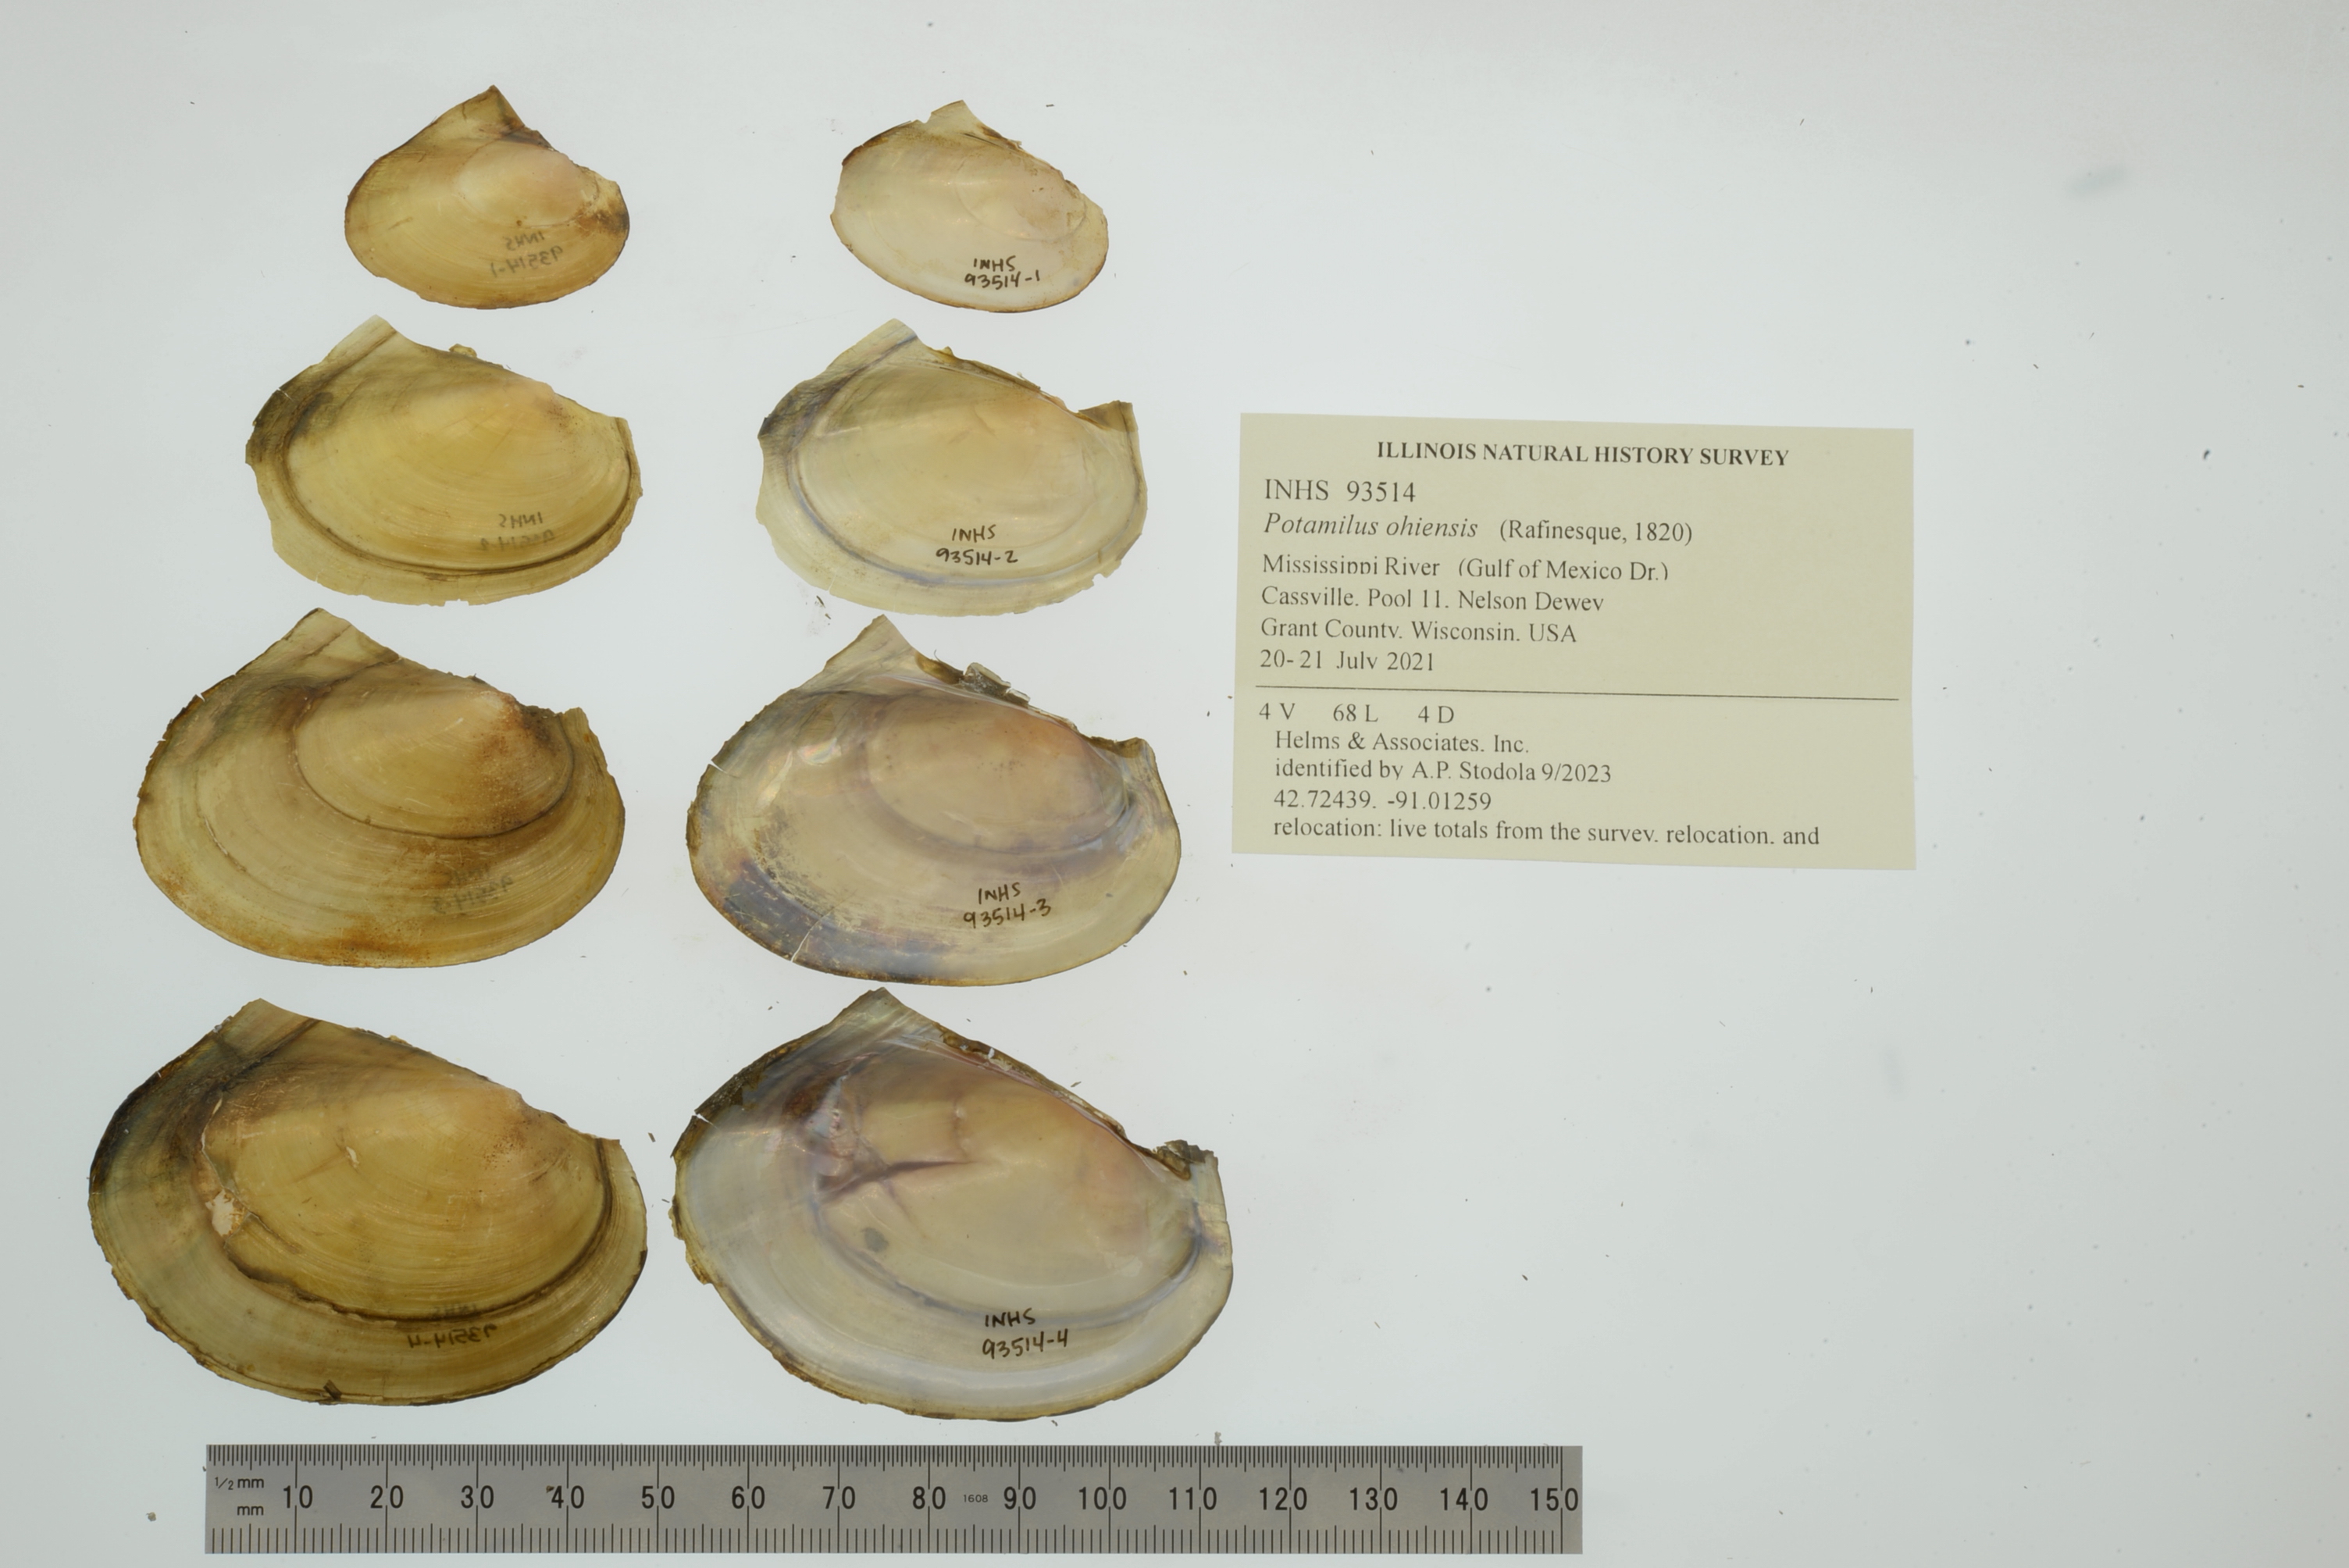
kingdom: Animalia
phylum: Mollusca
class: Bivalvia
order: Unionida
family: Unionidae
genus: Potamilus
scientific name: Potamilus ohiensis
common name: Pink papershell
